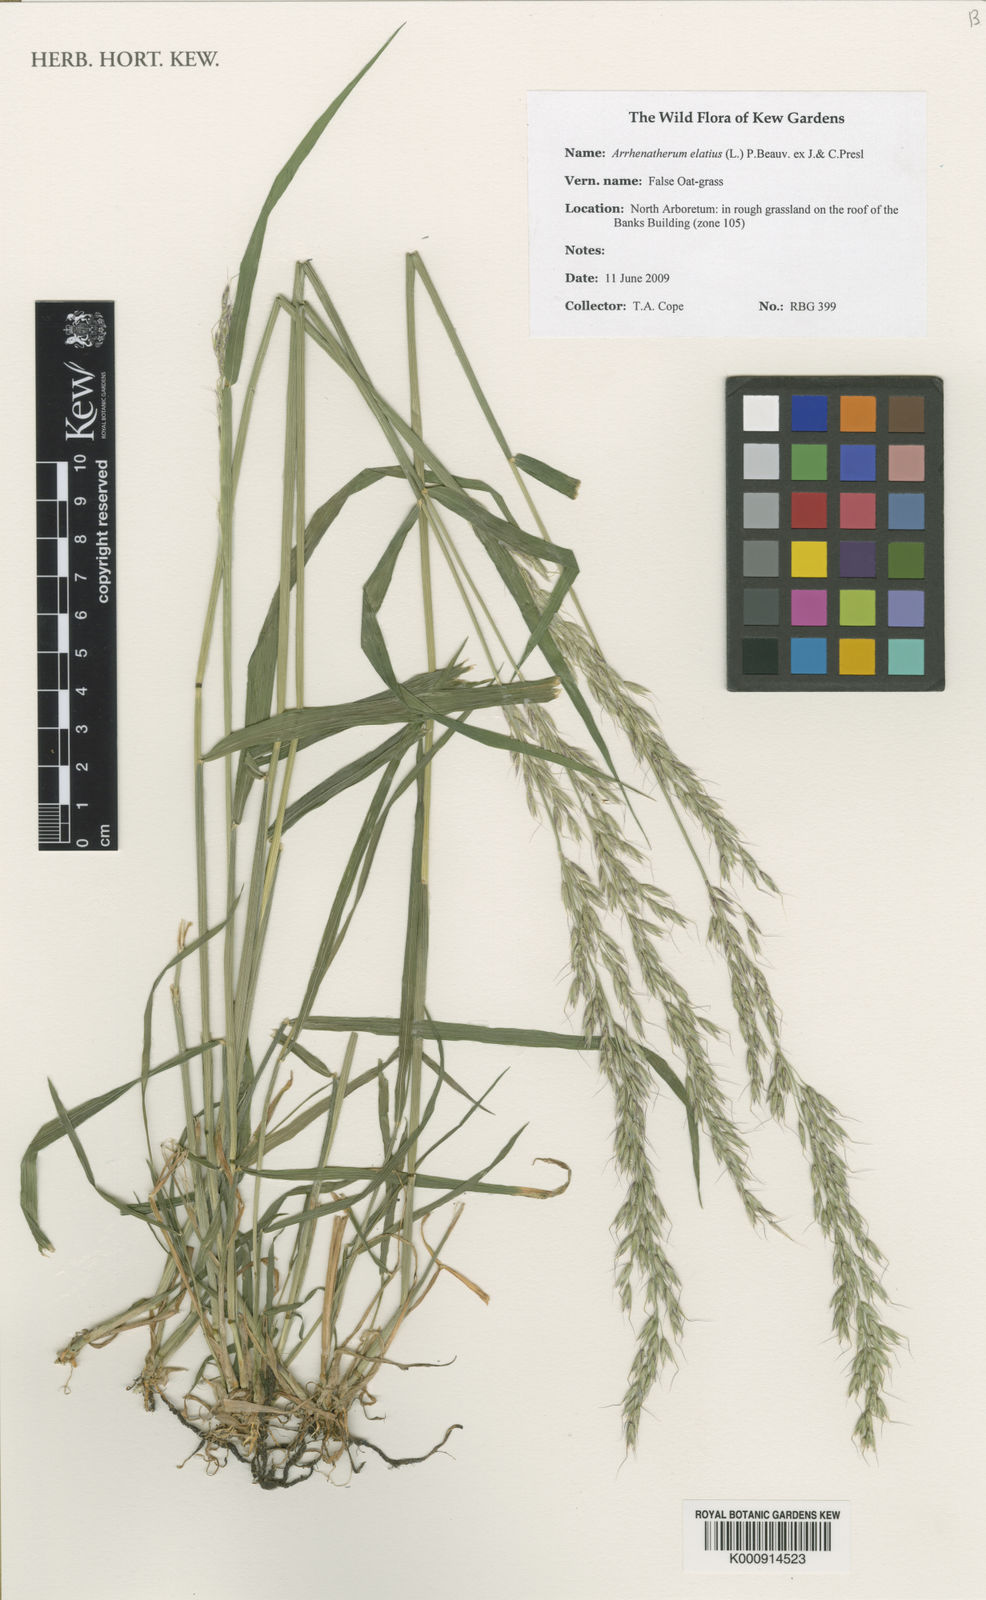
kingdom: Plantae
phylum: Tracheophyta
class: Liliopsida
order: Poales
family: Poaceae
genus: Arrhenatherum
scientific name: Arrhenatherum elatius
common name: Tall oatgrass
